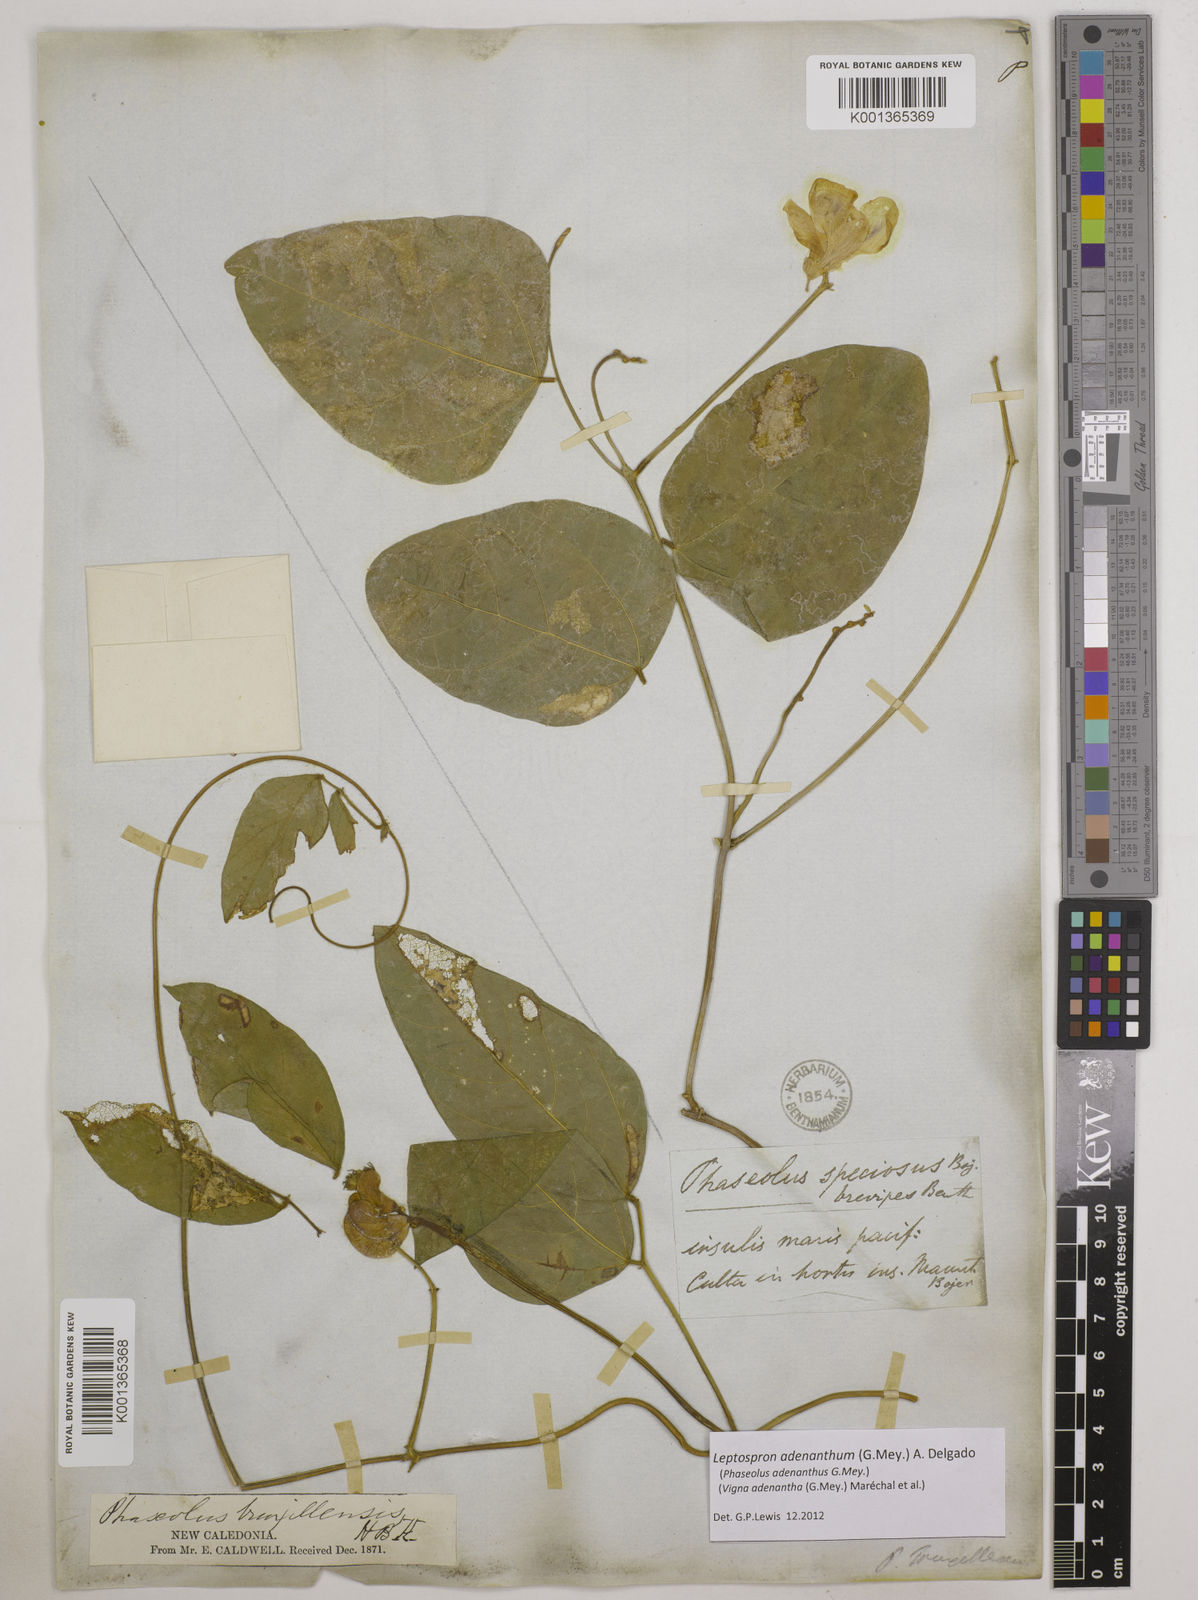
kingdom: Plantae
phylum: Tracheophyta
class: Magnoliopsida
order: Fabales
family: Fabaceae
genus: Leptospron
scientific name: Leptospron adenanthum
